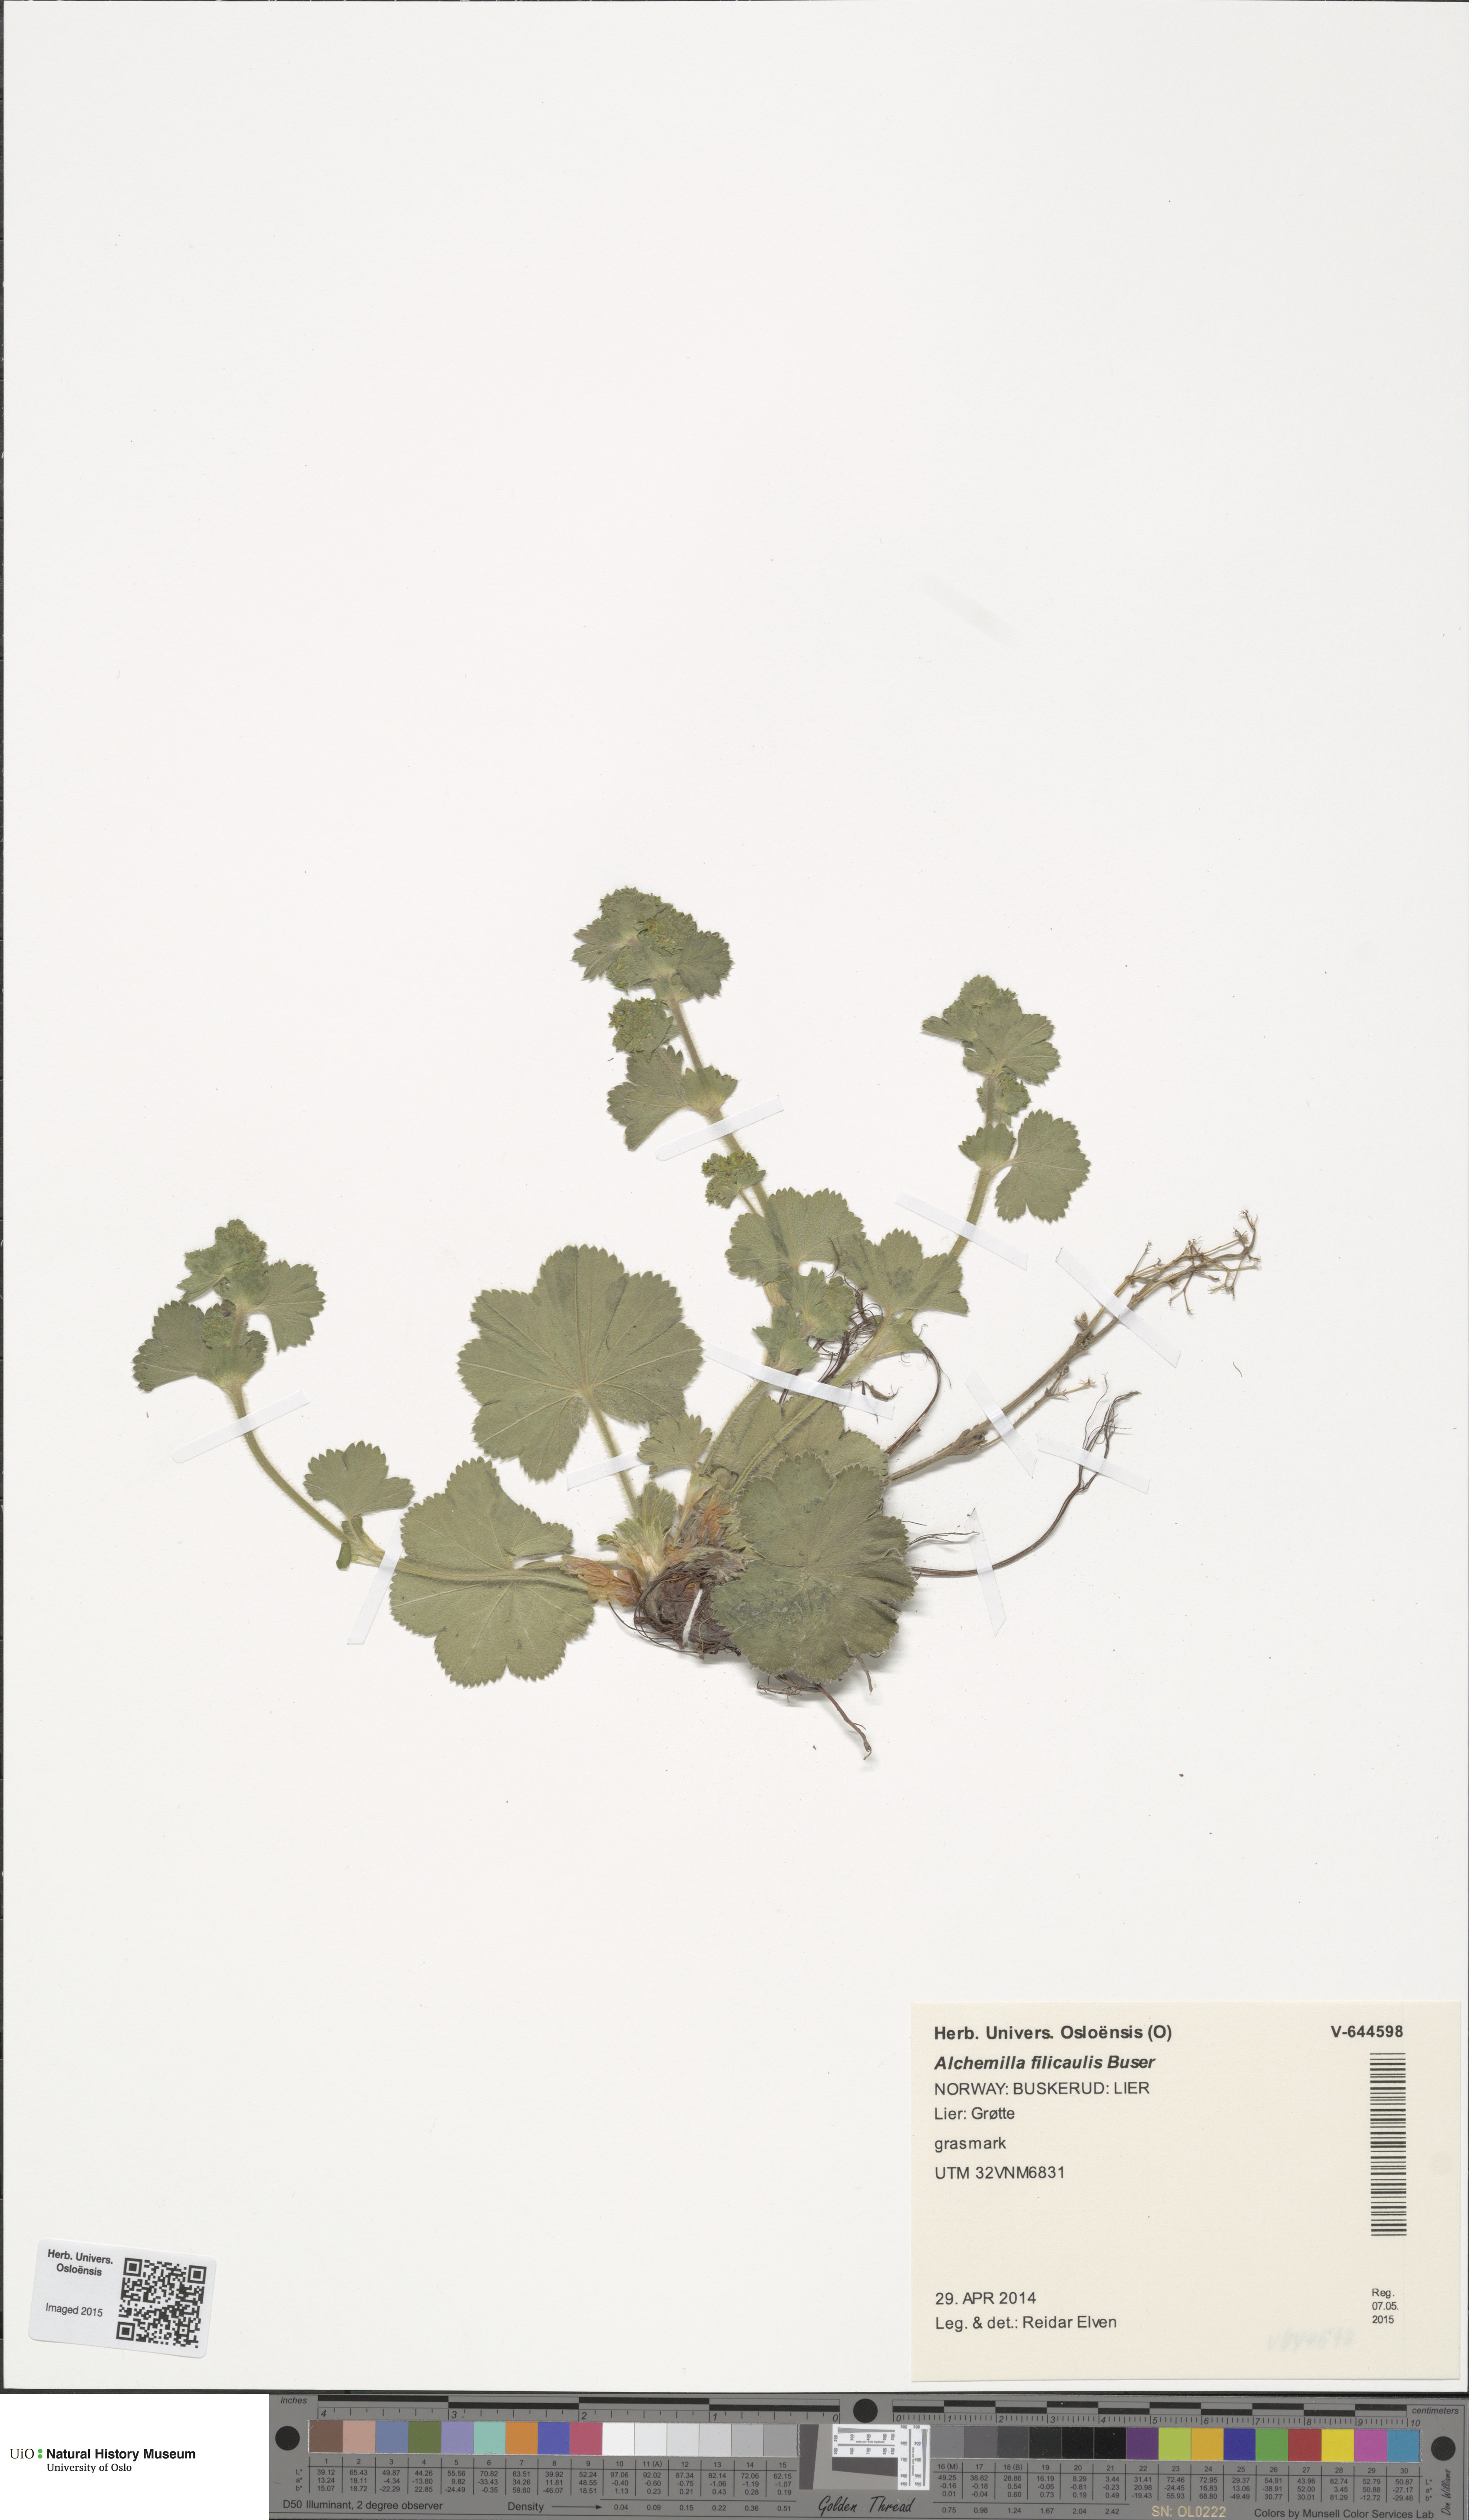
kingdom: Plantae
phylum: Tracheophyta
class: Magnoliopsida
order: Rosales
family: Rosaceae
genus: Alchemilla
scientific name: Alchemilla filicaulis
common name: Hairy lady's-mantle
